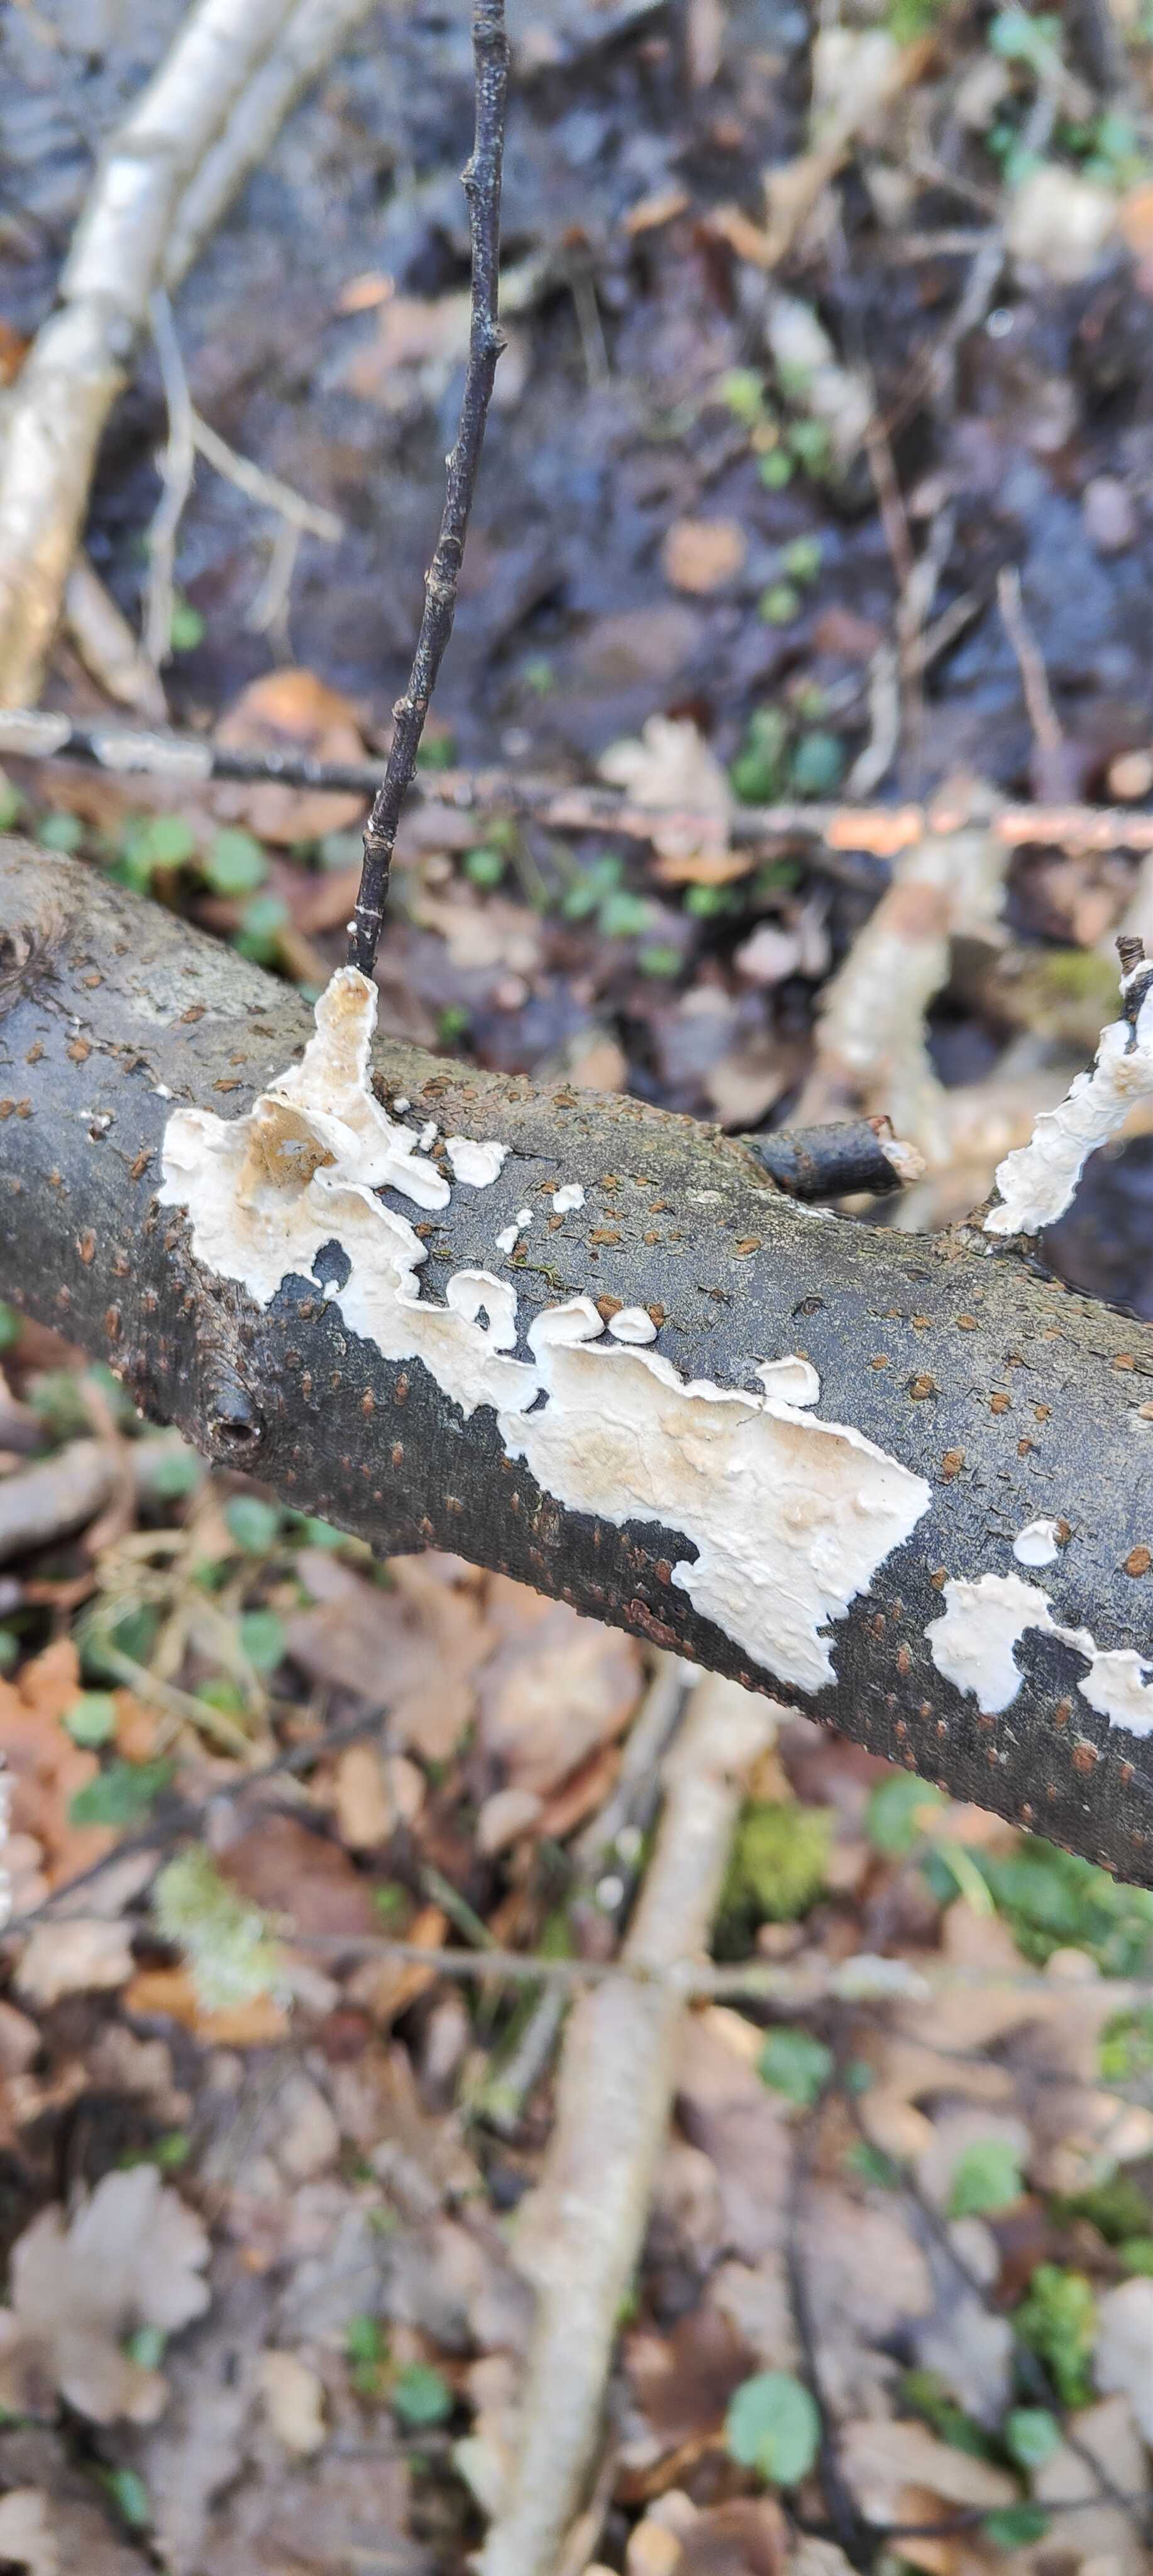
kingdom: Fungi
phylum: Basidiomycota
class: Agaricomycetes
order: Polyporales
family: Irpicaceae
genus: Byssomerulius
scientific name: Byssomerulius corium
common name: læder-åresvamp
